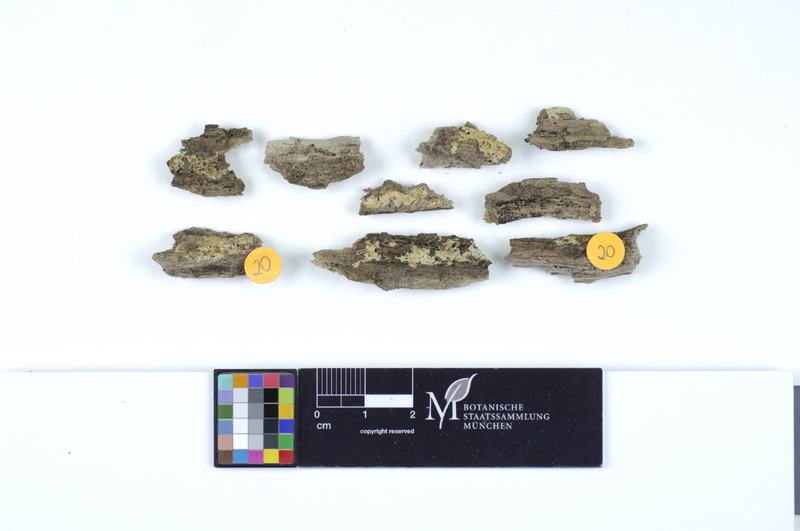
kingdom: Fungi
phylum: Basidiomycota
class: Agaricomycetes
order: Polyporales
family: Irpicaceae
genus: Ceriporia
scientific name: Ceriporia excelsa
